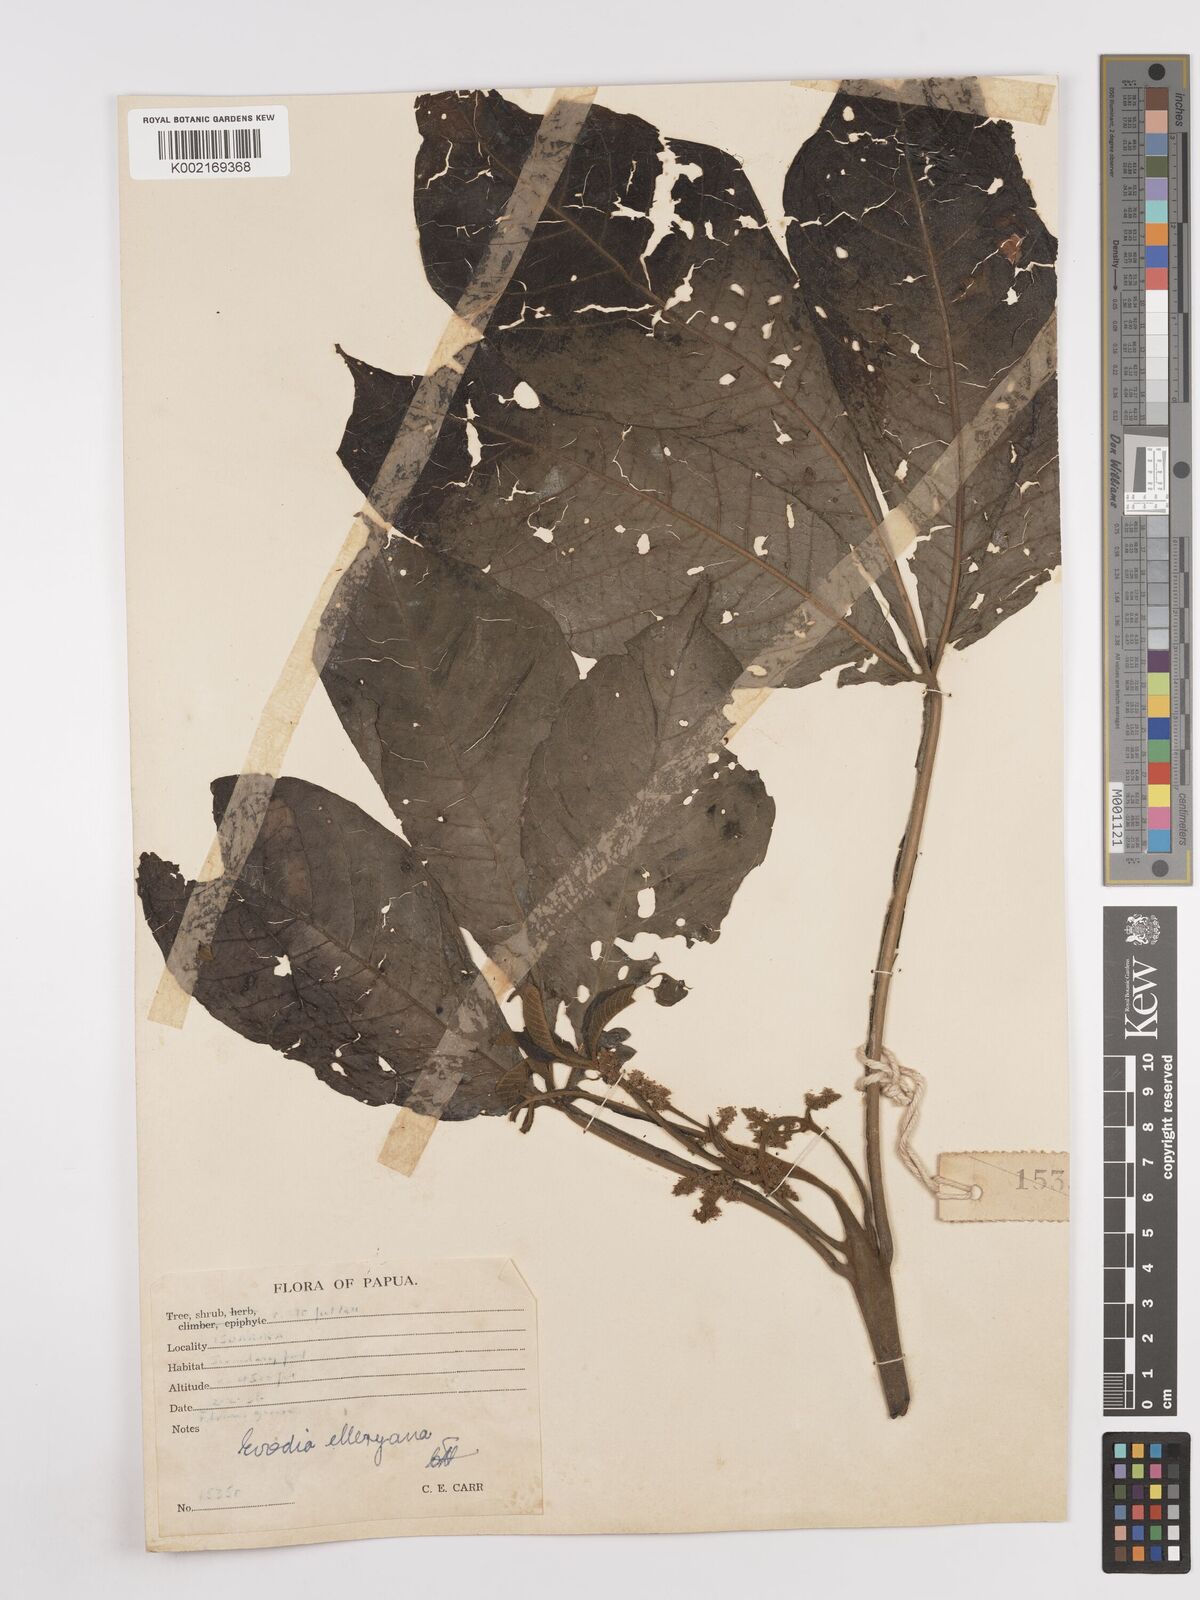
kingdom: Plantae
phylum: Tracheophyta
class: Magnoliopsida
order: Sapindales
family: Rutaceae
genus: Melicope
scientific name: Melicope elleryana
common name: Pink euodia
